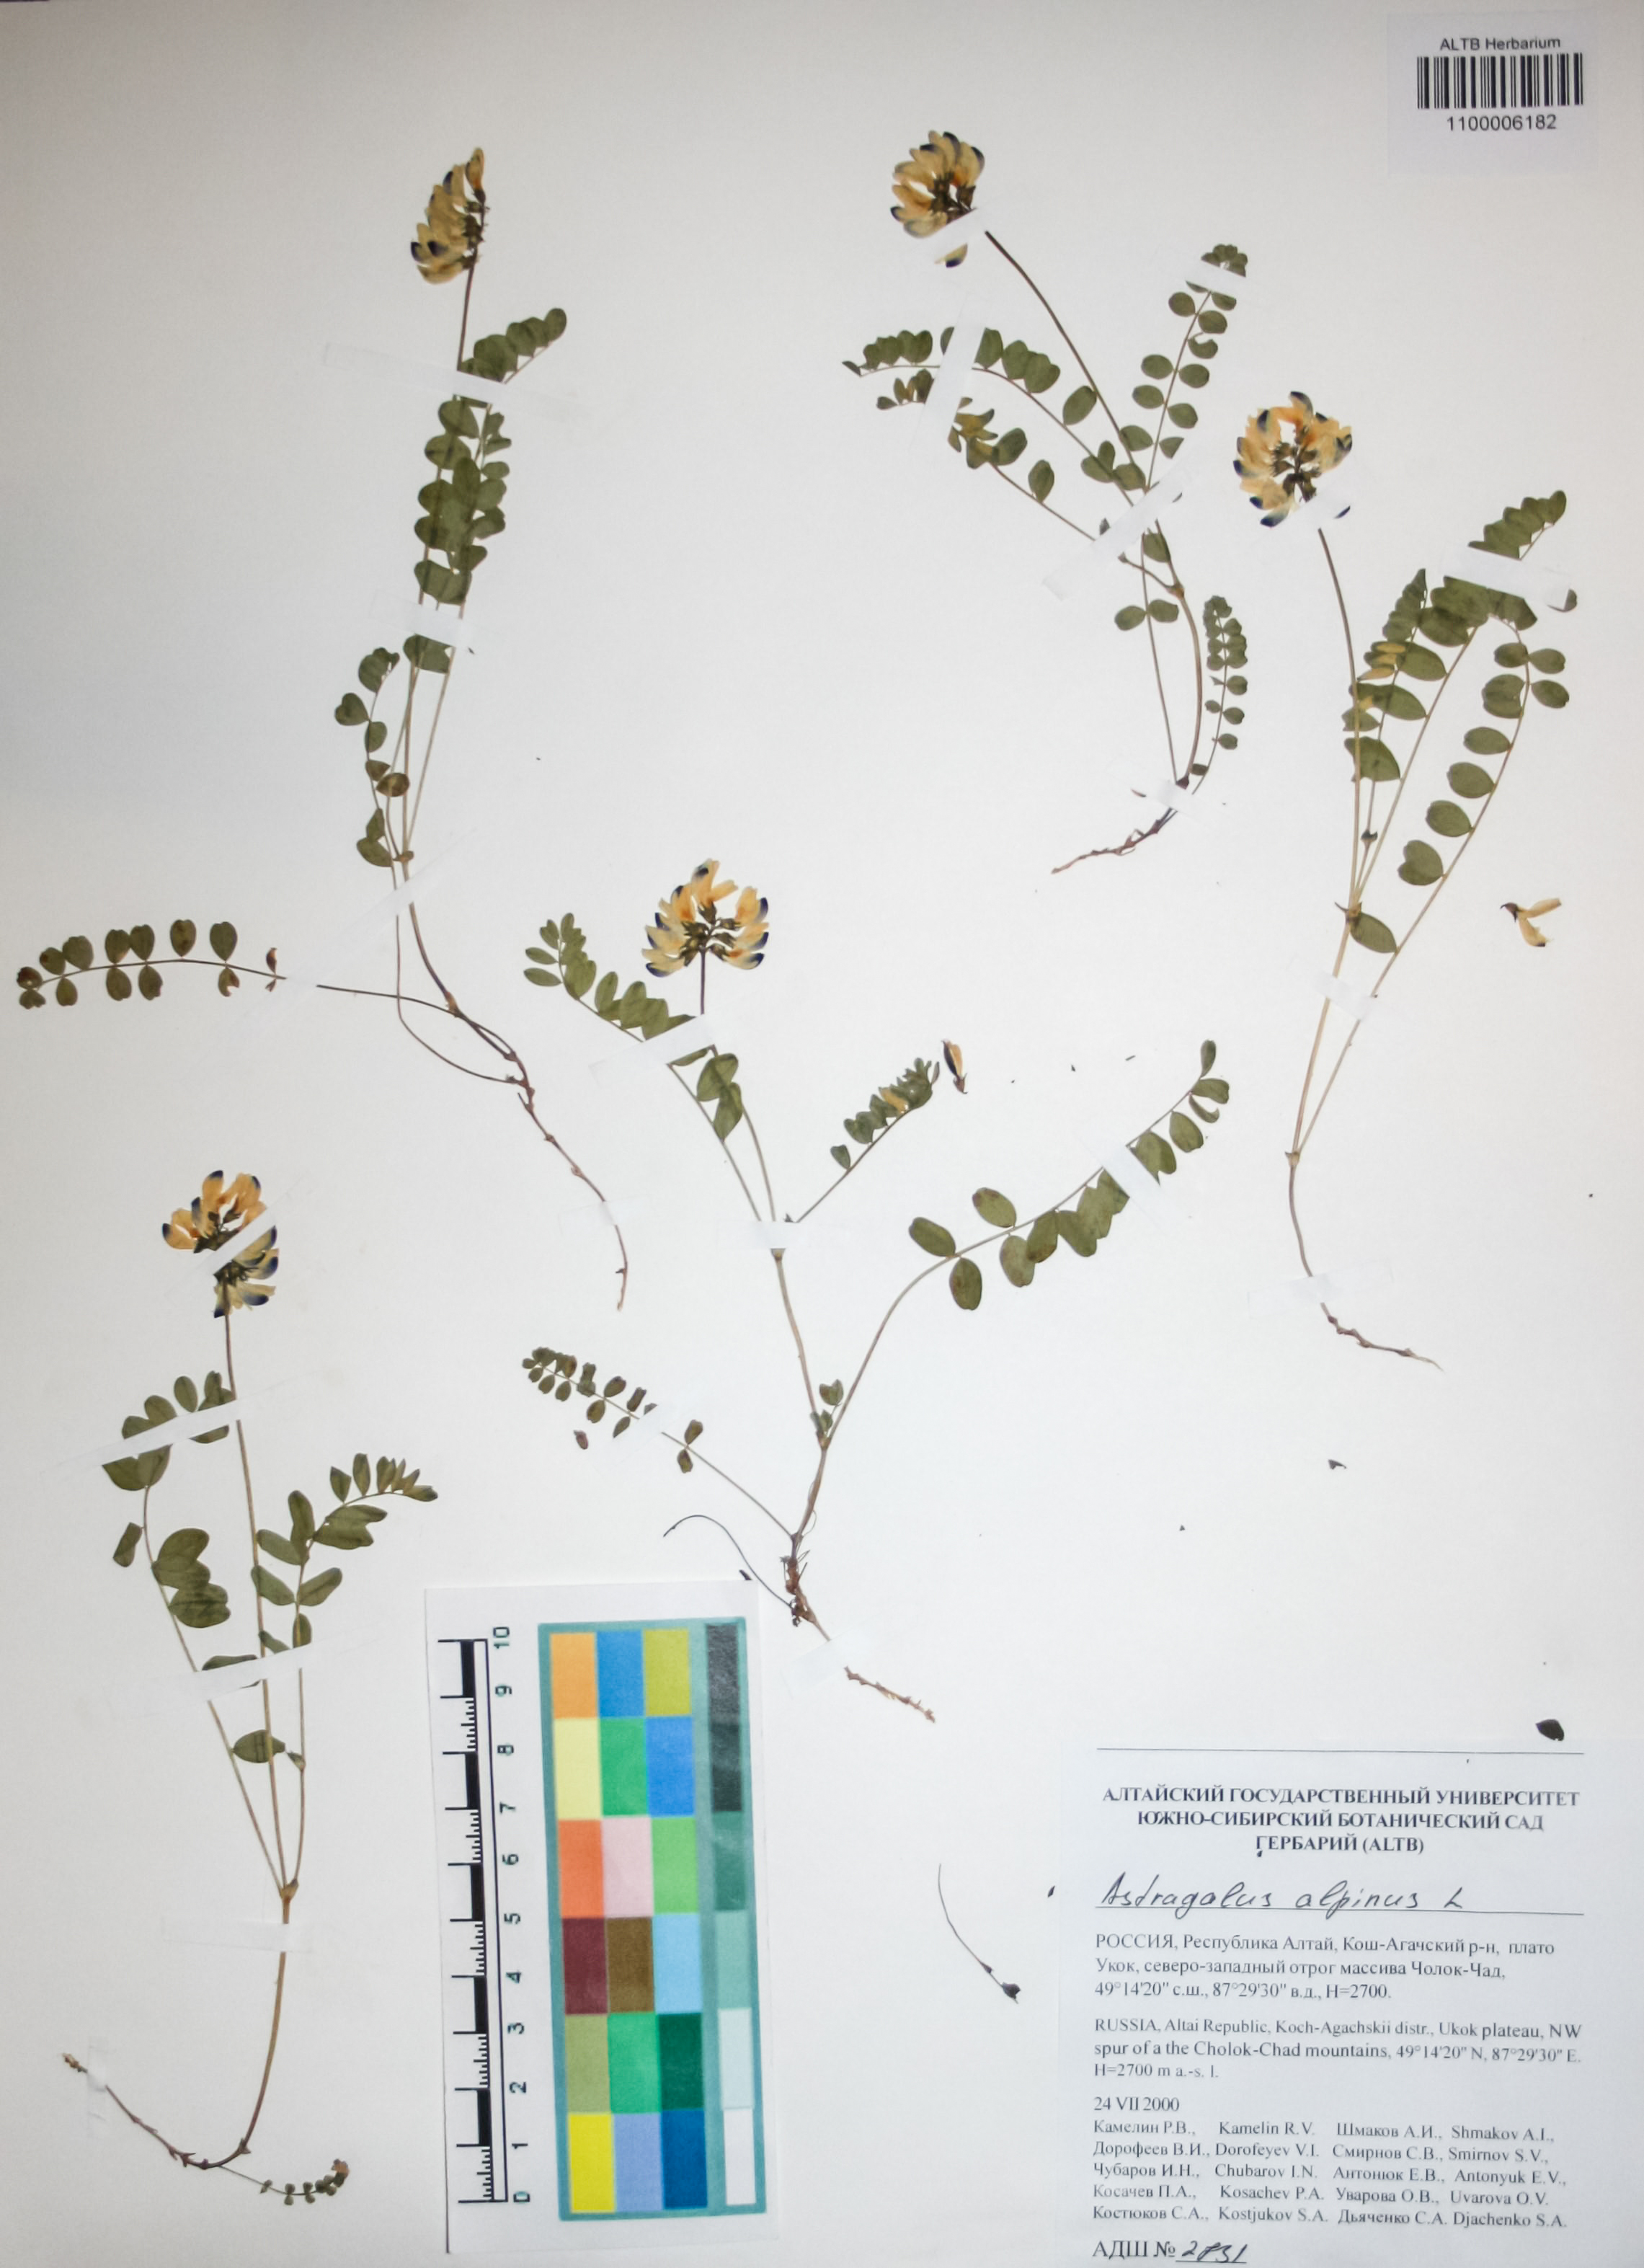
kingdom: Plantae
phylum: Tracheophyta
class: Magnoliopsida
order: Fabales
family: Fabaceae
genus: Astragalus
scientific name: Astragalus alpinus
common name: Alpine milk-vetch
